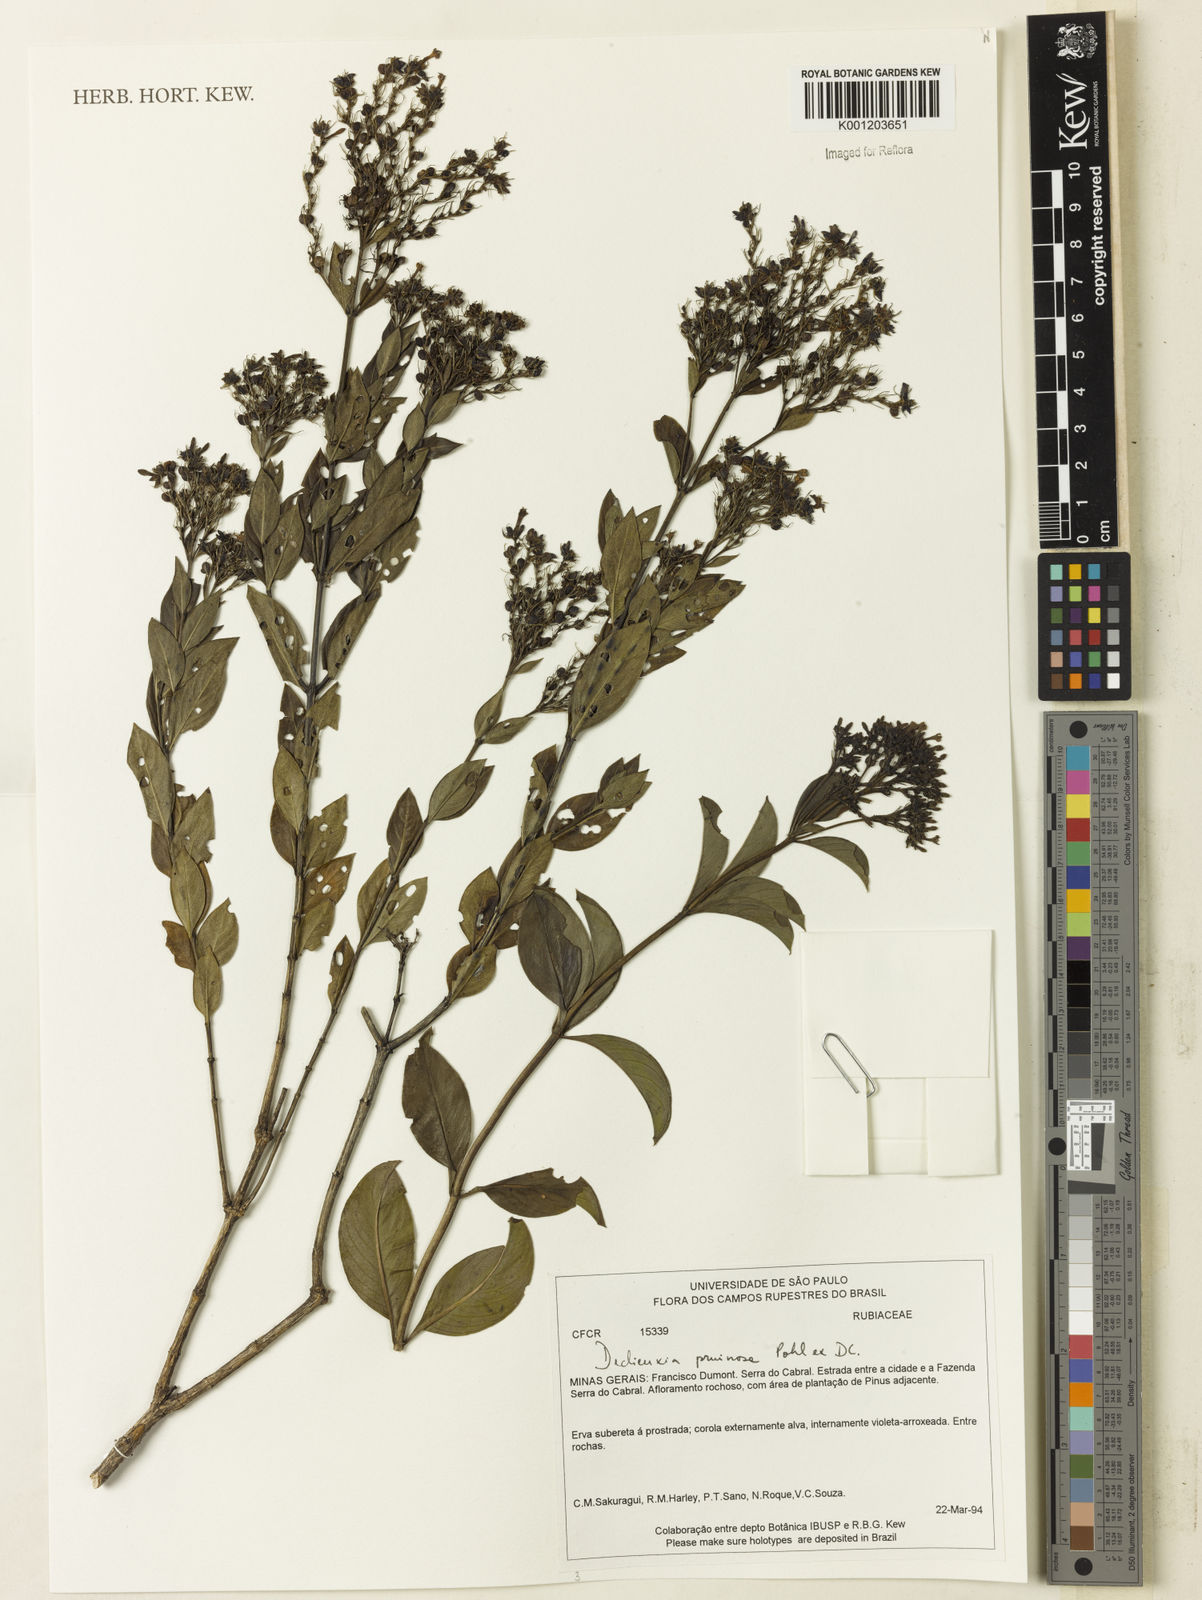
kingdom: Plantae
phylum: Tracheophyta
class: Magnoliopsida
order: Gentianales
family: Rubiaceae
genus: Declieuxia
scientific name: Declieuxia pruinosa
